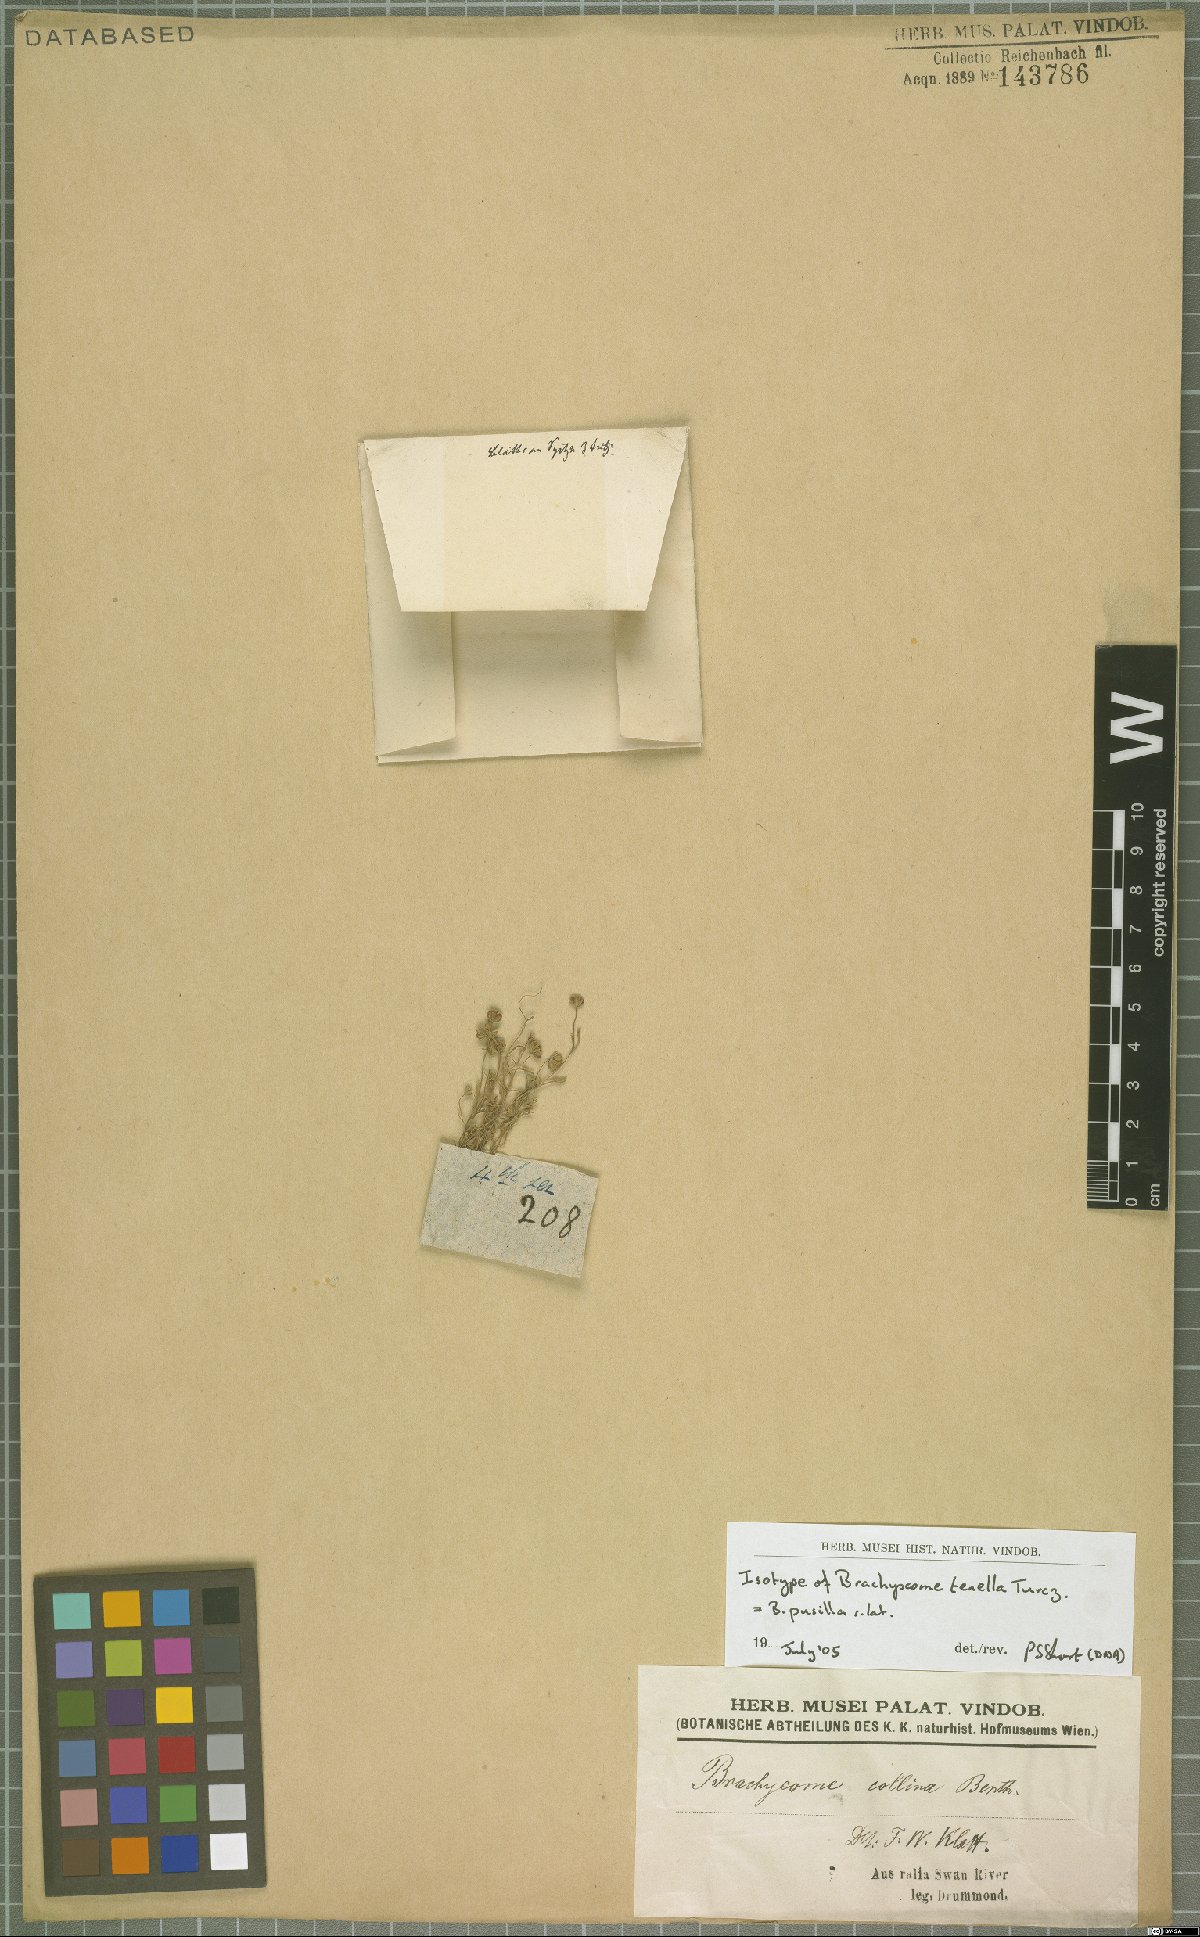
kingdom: Plantae
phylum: Tracheophyta
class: Magnoliopsida
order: Asterales
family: Asteraceae
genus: Brachyscome
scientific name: Brachyscome pusilla
